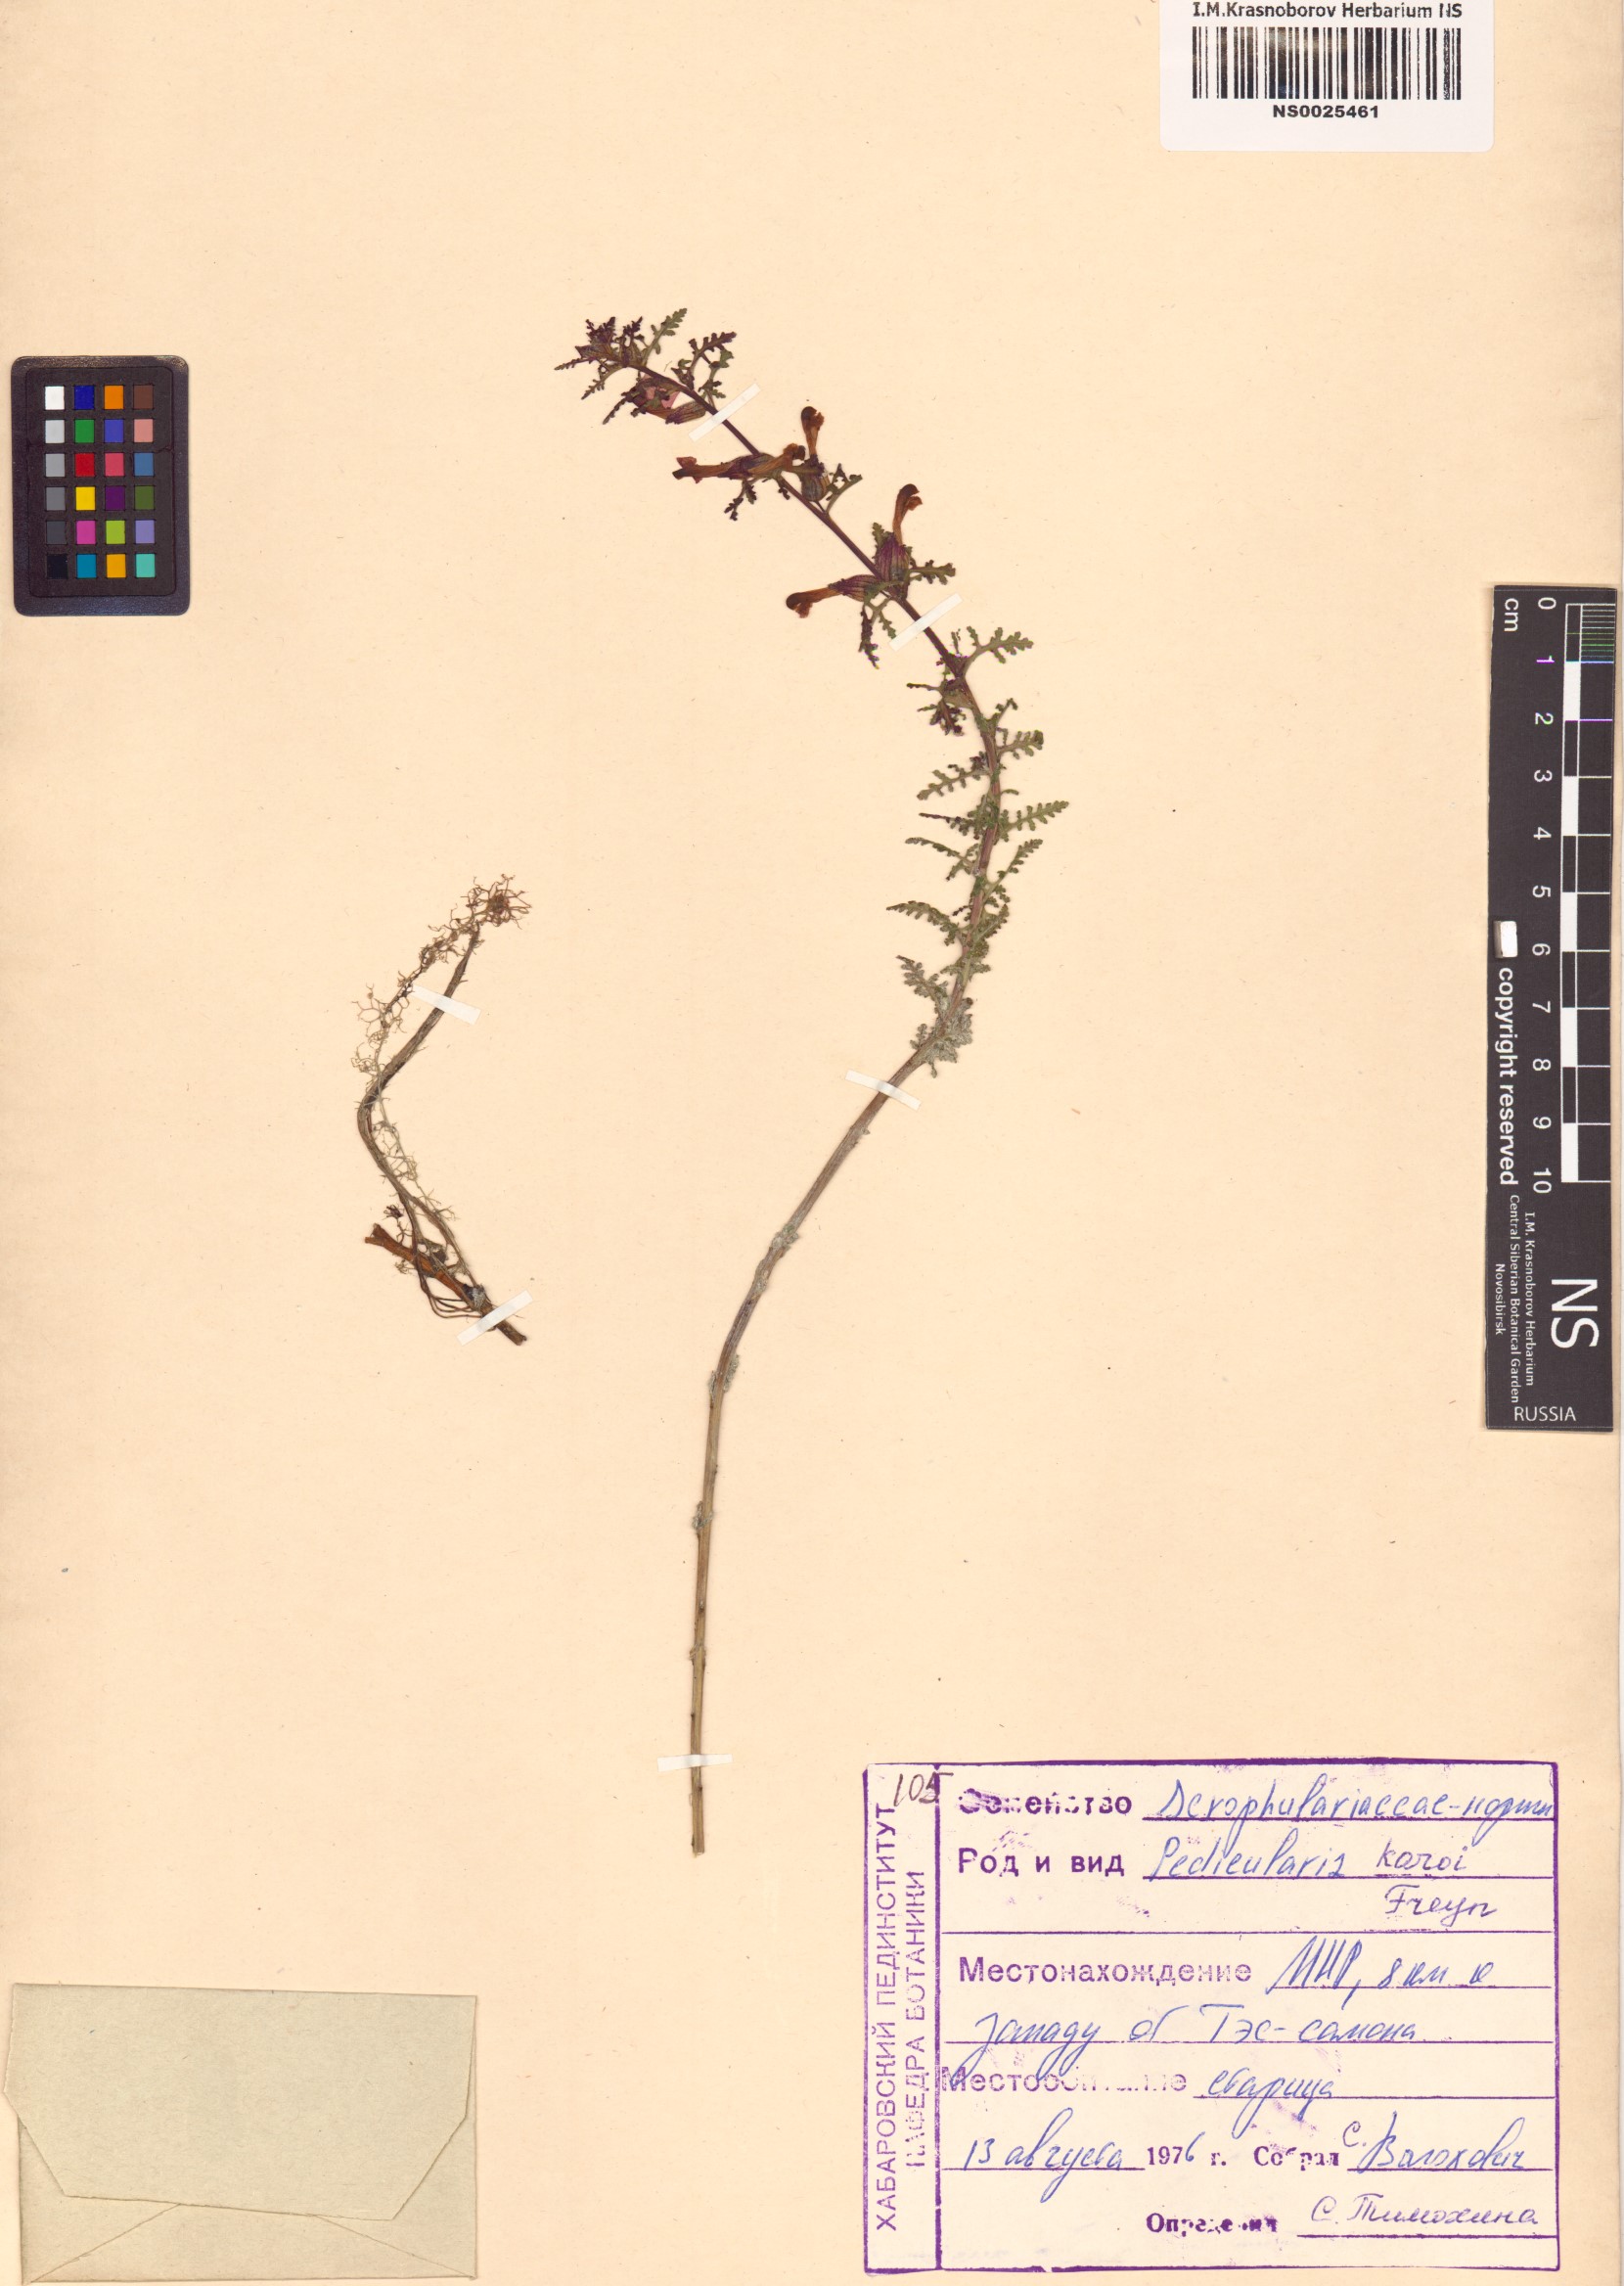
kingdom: Plantae
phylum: Tracheophyta
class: Magnoliopsida
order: Lamiales
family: Orobanchaceae
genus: Pedicularis
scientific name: Pedicularis karoi
